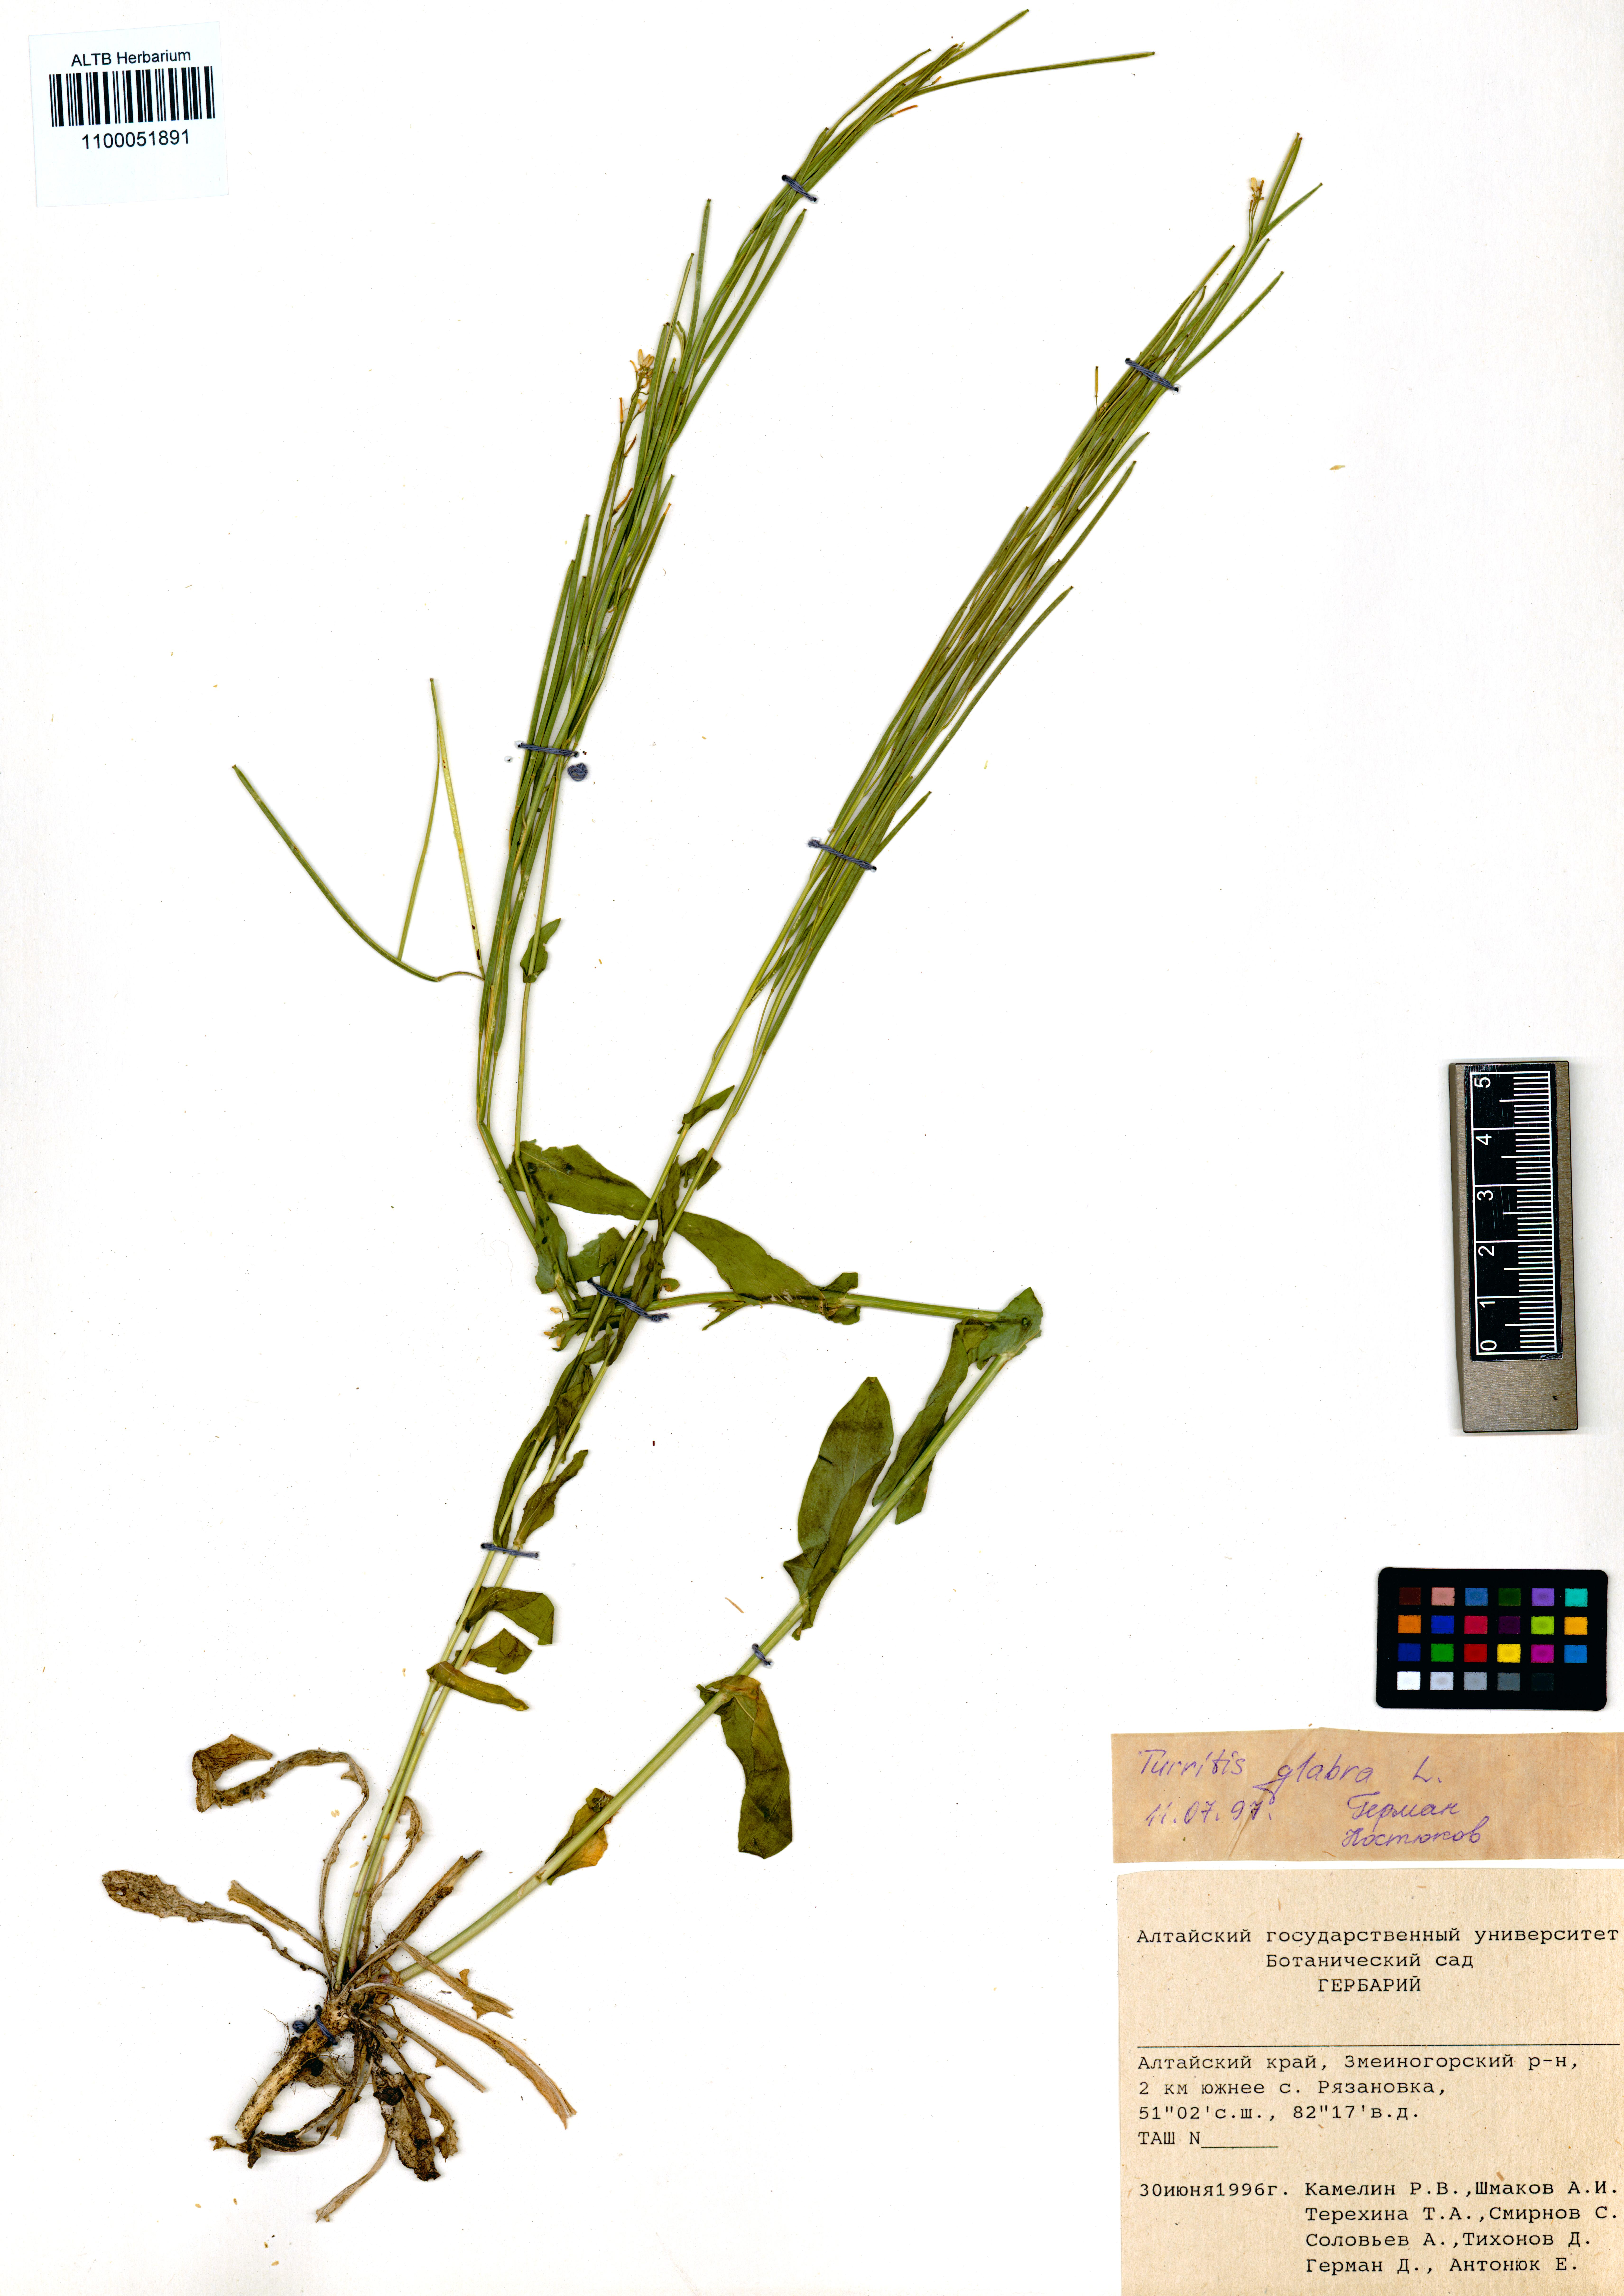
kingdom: Plantae
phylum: Tracheophyta
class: Magnoliopsida
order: Brassicales
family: Brassicaceae
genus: Turritis
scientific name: Turritis glabra
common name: Tower rockcress
